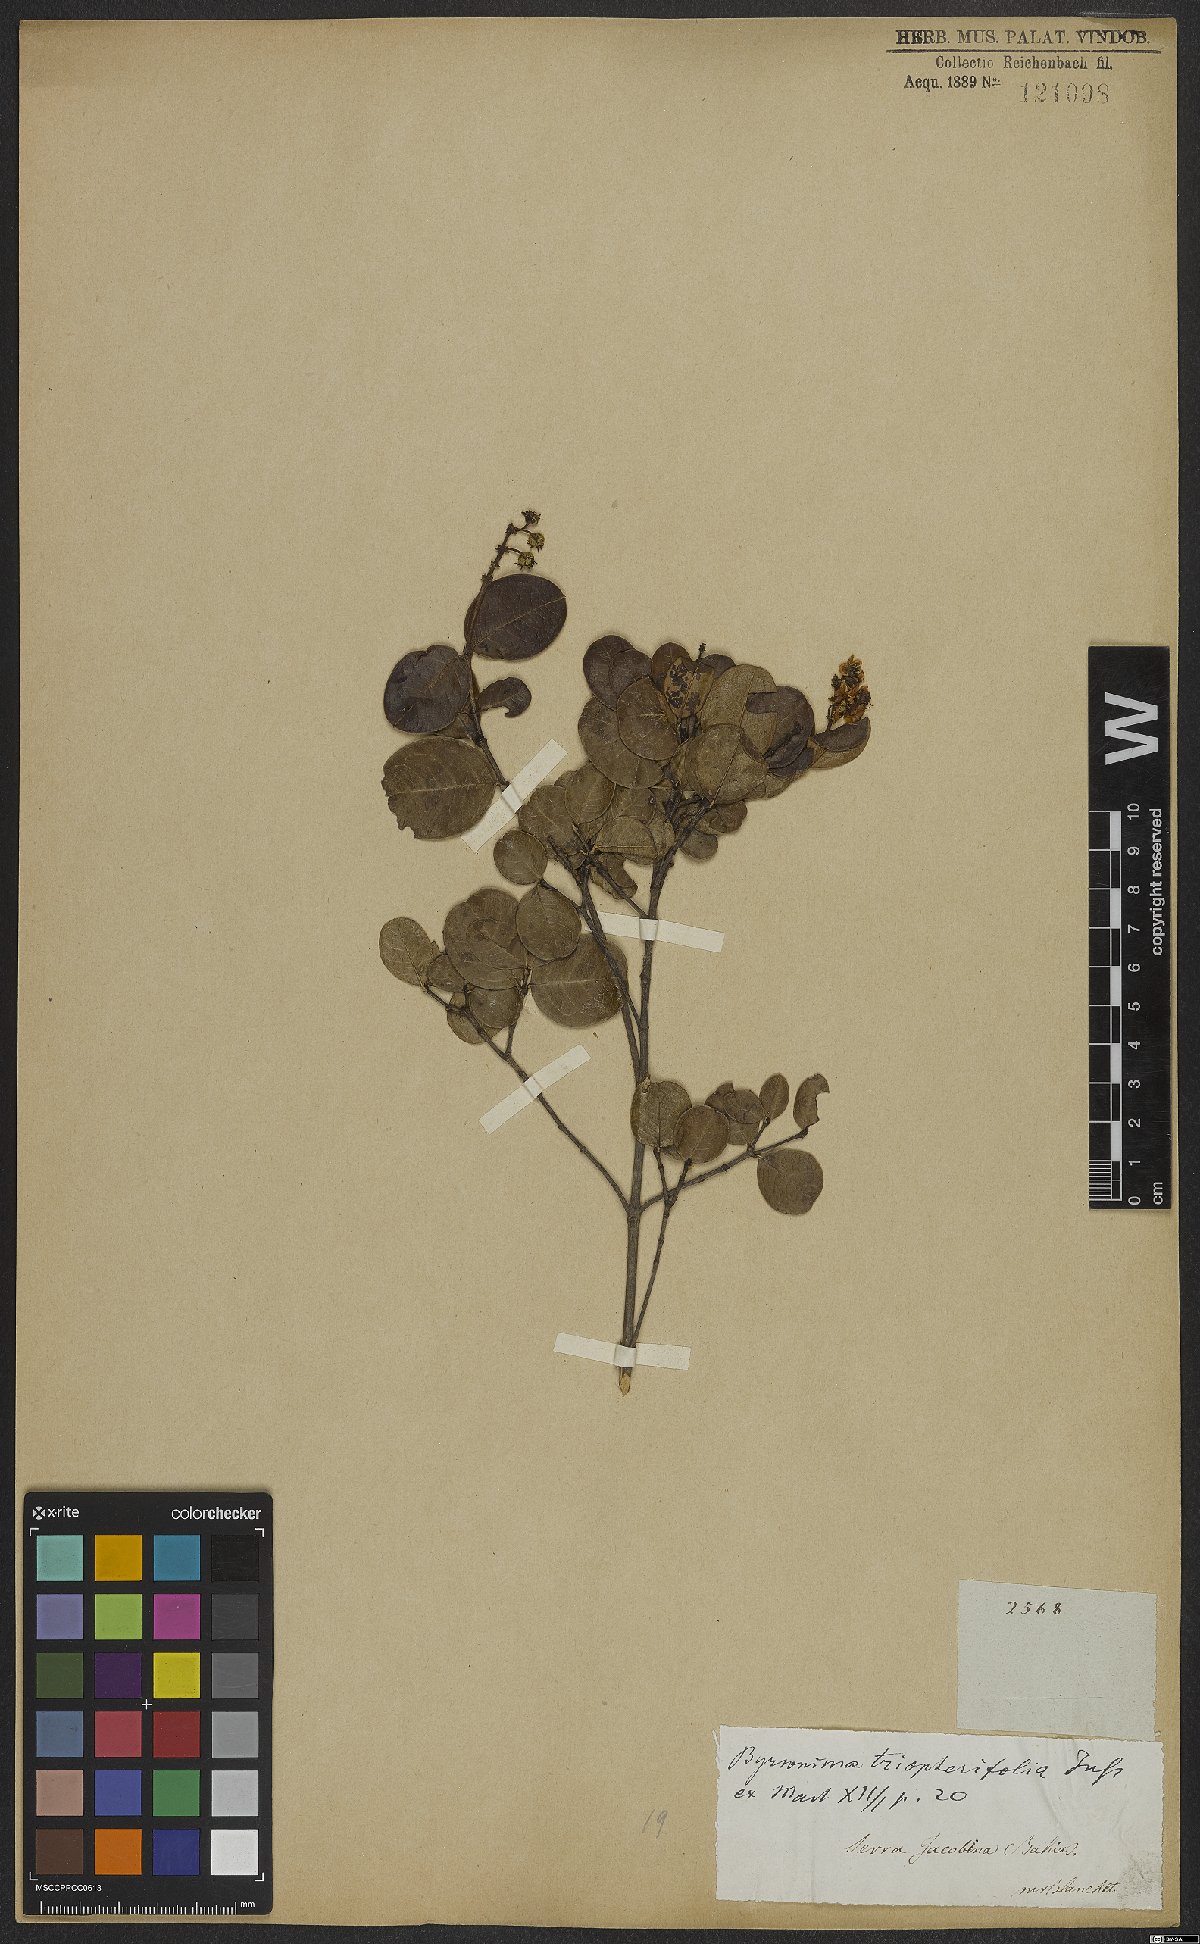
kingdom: Plantae
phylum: Tracheophyta
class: Magnoliopsida
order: Malpighiales
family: Malpighiaceae
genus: Byrsonima
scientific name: Byrsonima triopterifolia
